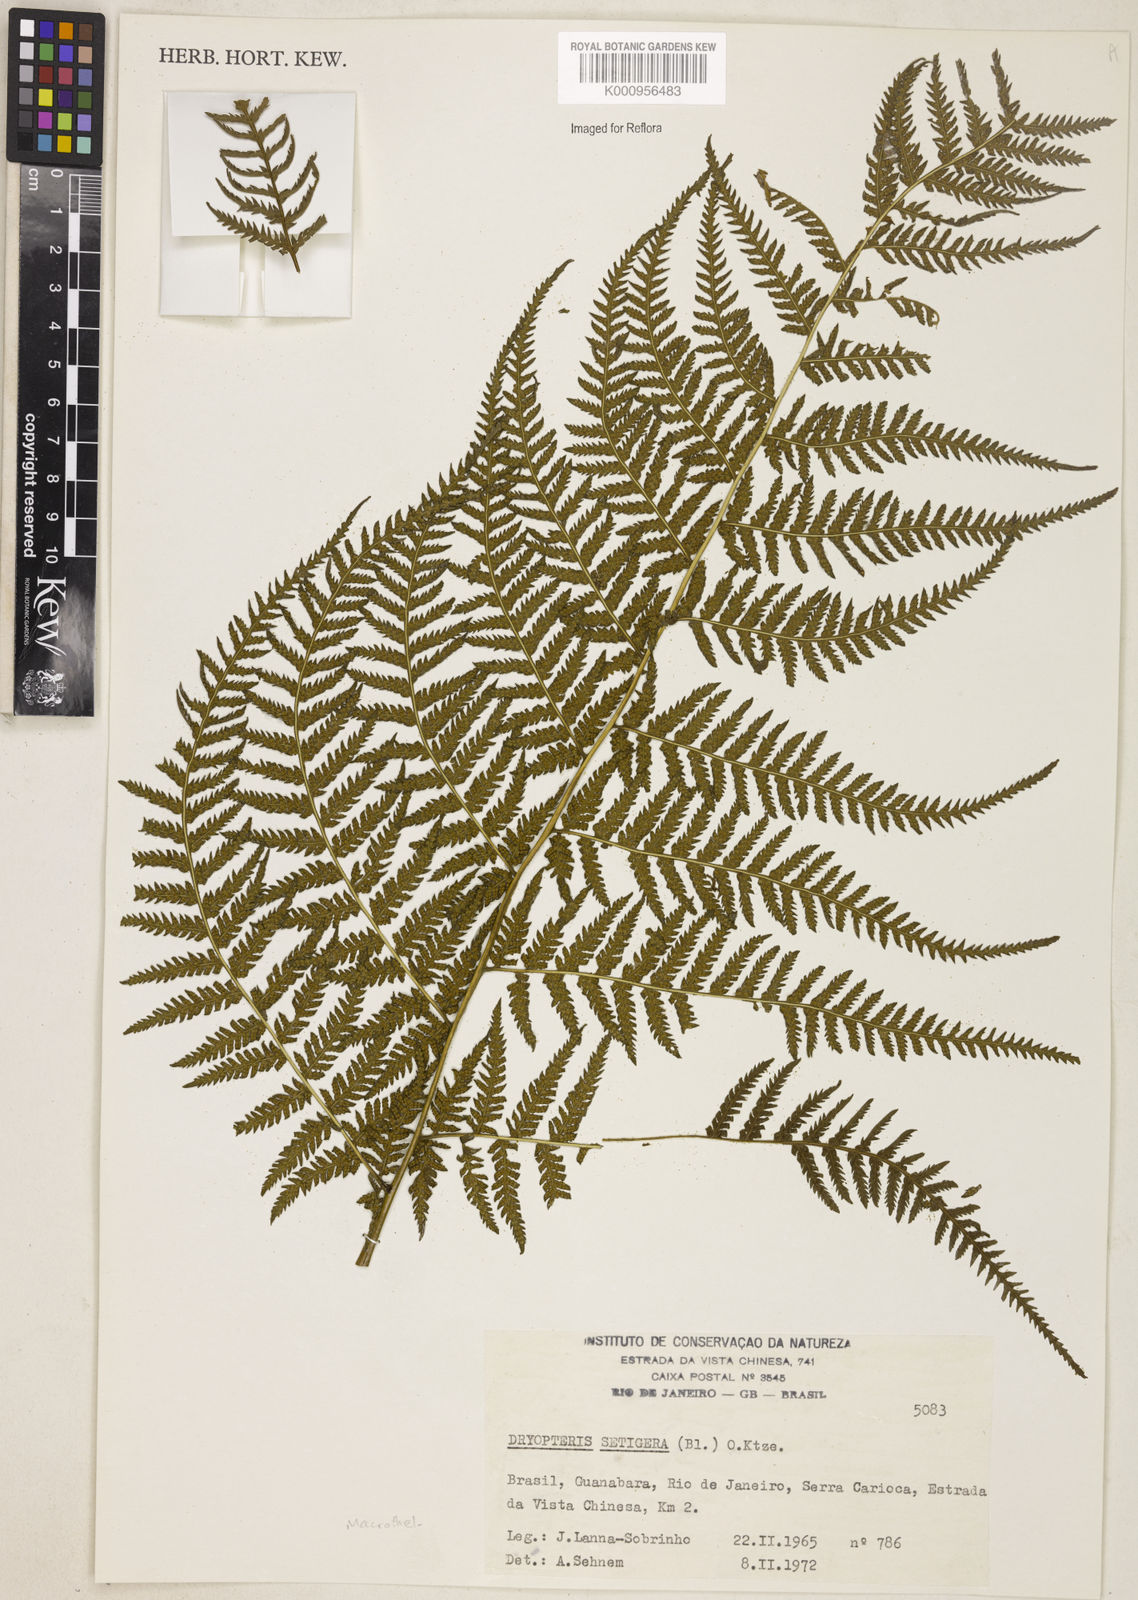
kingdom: Plantae
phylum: Tracheophyta
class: Polypodiopsida
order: Polypodiales
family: Thelypteridaceae
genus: Macrothelypteris
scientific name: Macrothelypteris torresiana
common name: Swordfern
